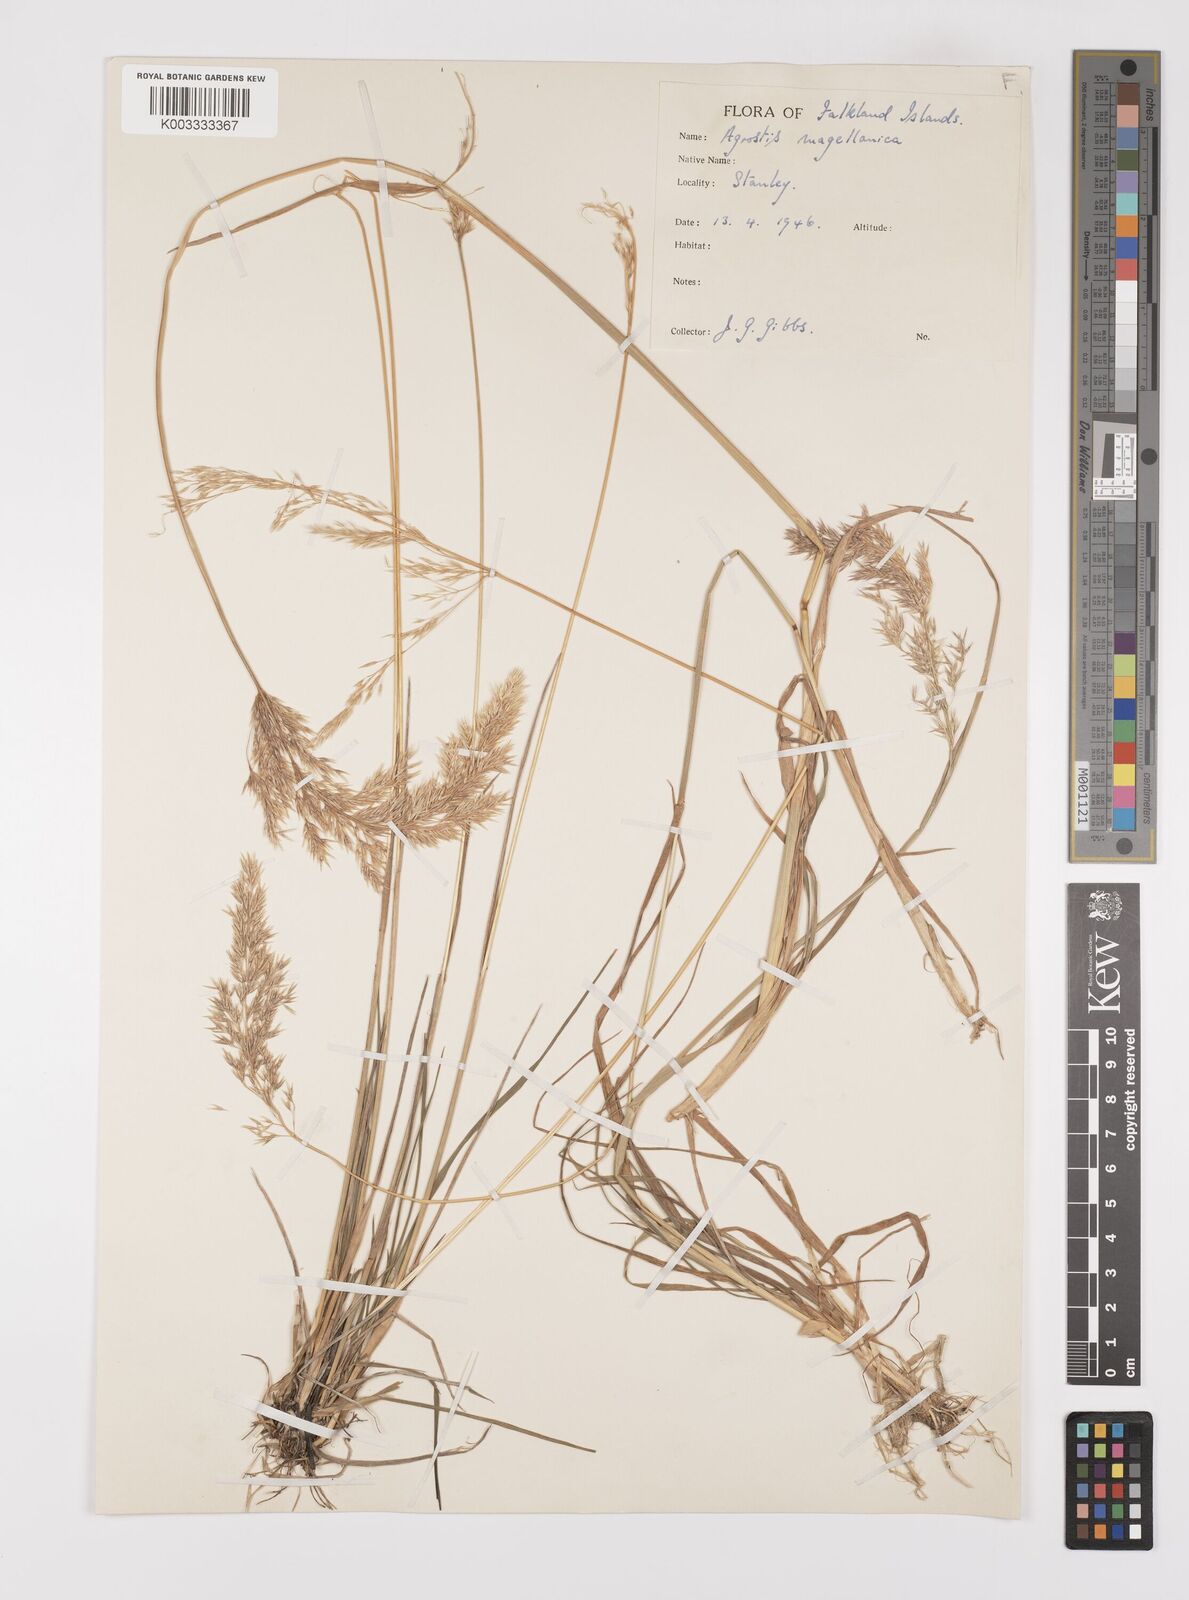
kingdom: Plantae
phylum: Tracheophyta
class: Liliopsida
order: Poales
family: Poaceae
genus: Polypogon
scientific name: Polypogon magellanicus
